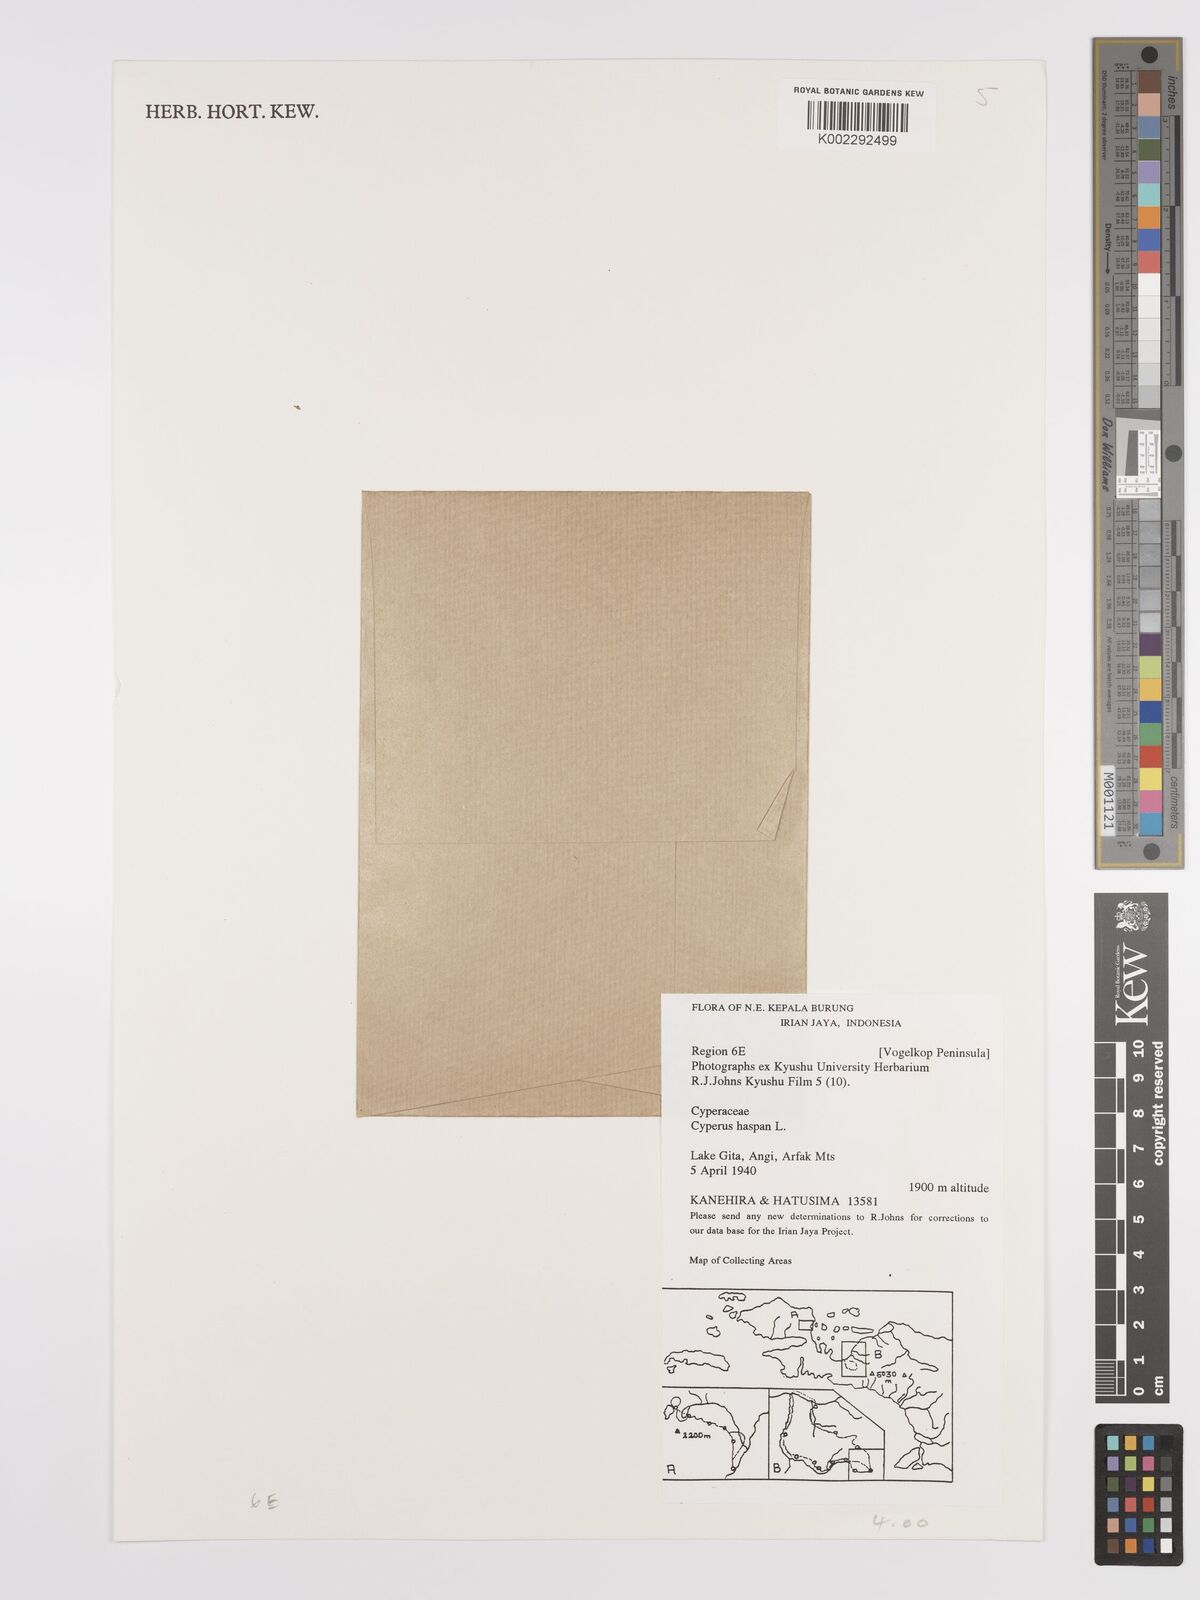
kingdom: Plantae
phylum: Tracheophyta
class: Liliopsida
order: Poales
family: Cyperaceae
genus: Cyperus
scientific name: Cyperus haspan
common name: Haspan flatsedge
